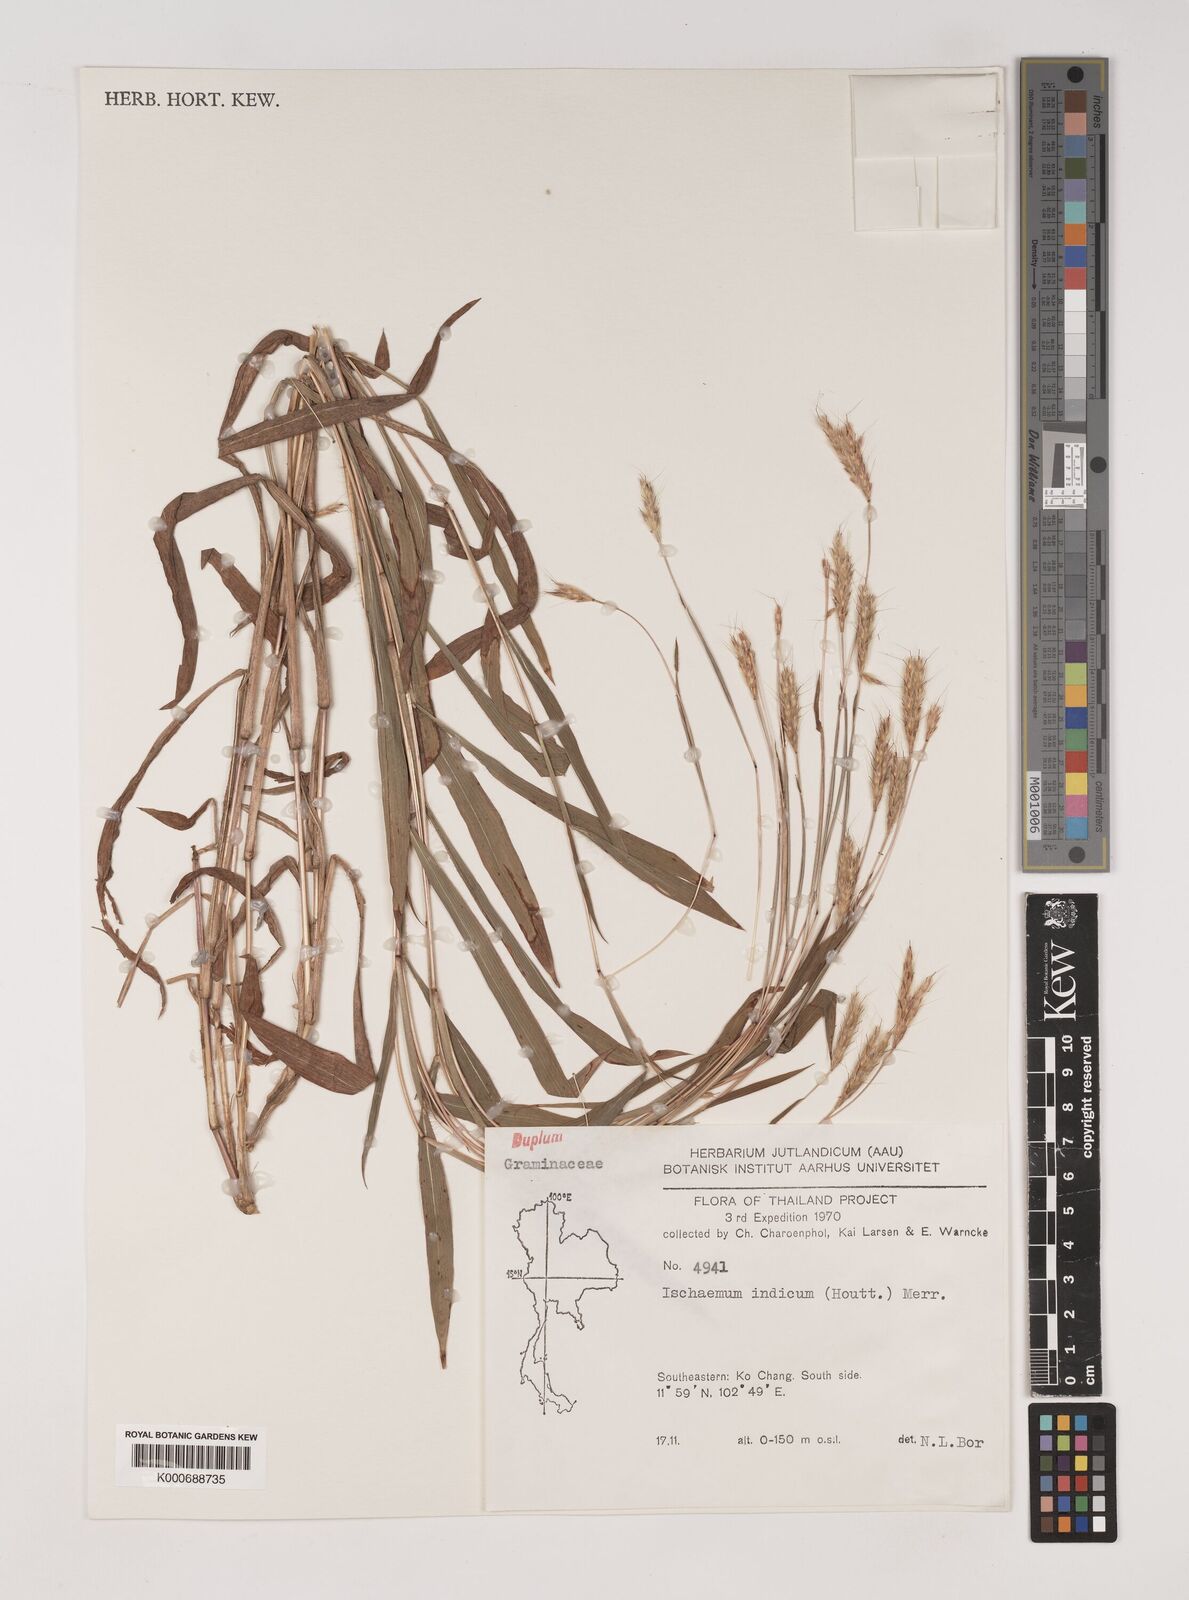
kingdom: Plantae
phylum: Tracheophyta
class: Liliopsida
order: Poales
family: Poaceae
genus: Polytrias
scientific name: Polytrias indica
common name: Indian murainagrass
